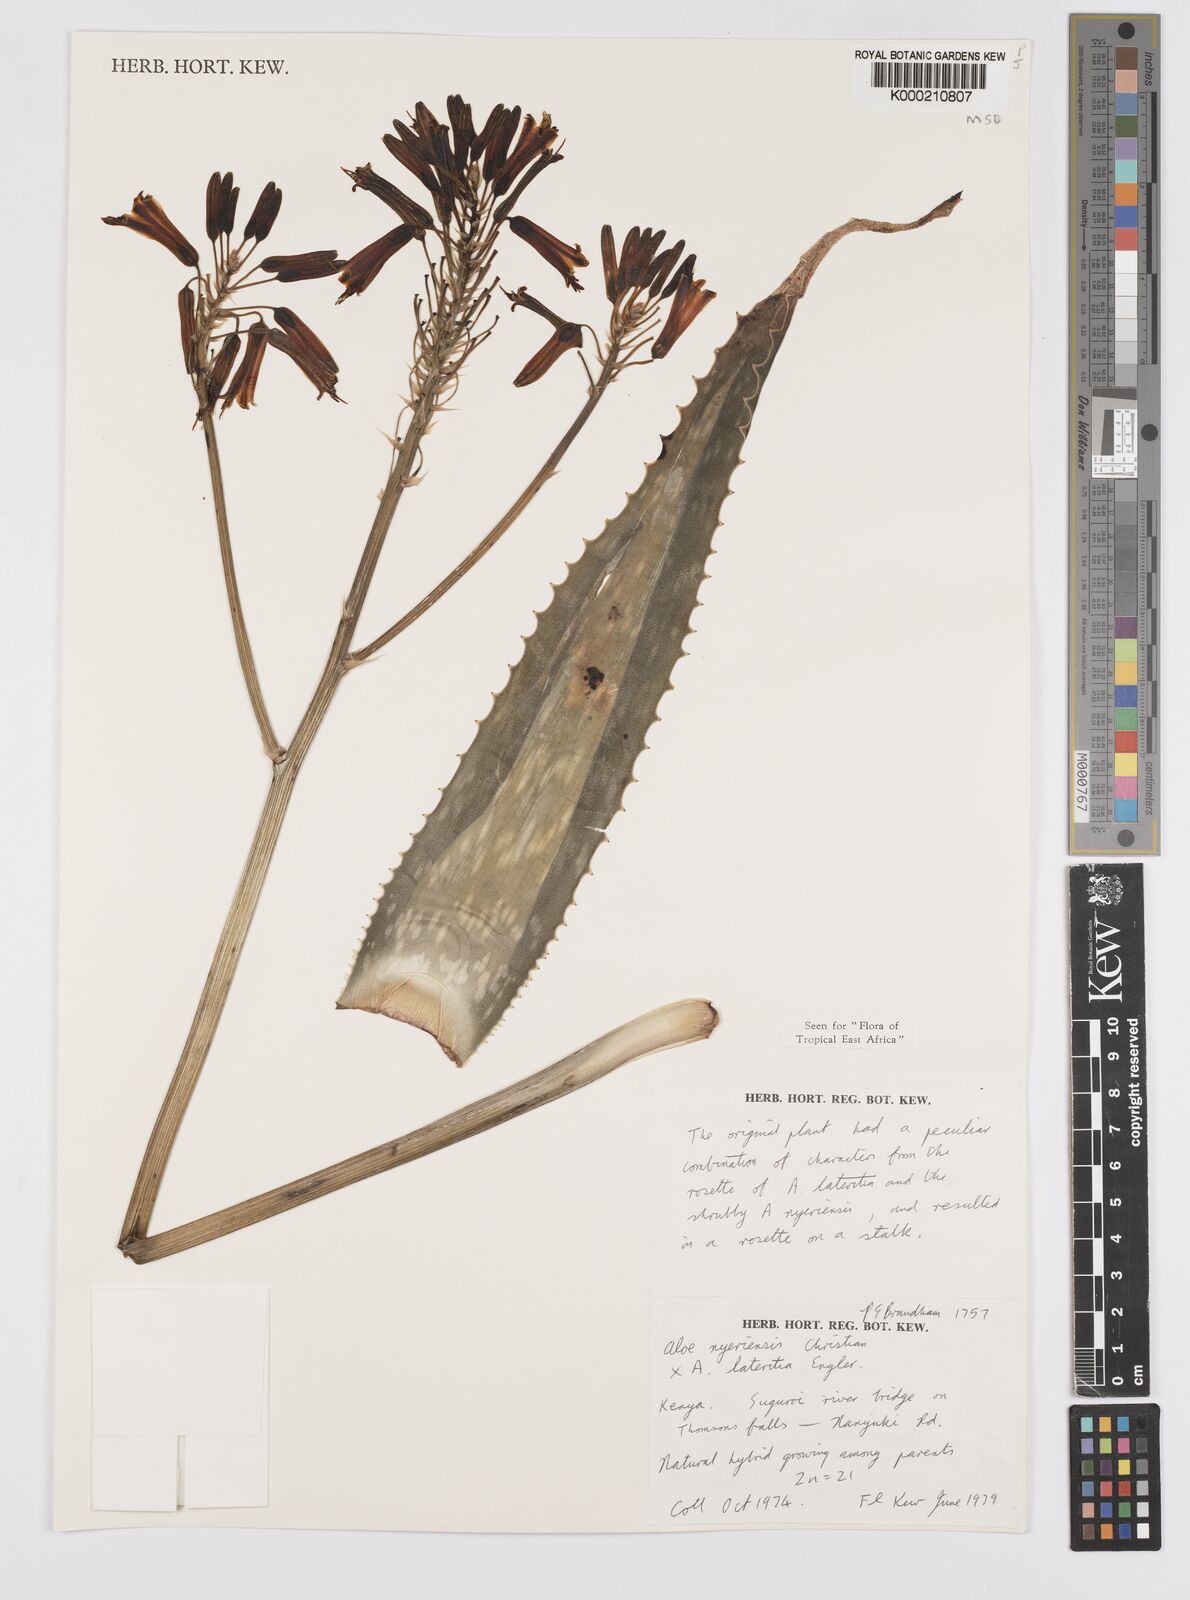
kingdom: Plantae
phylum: Tracheophyta
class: Liliopsida
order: Asparagales
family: Asphodelaceae
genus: Aloe
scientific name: Aloe nyeriensis
